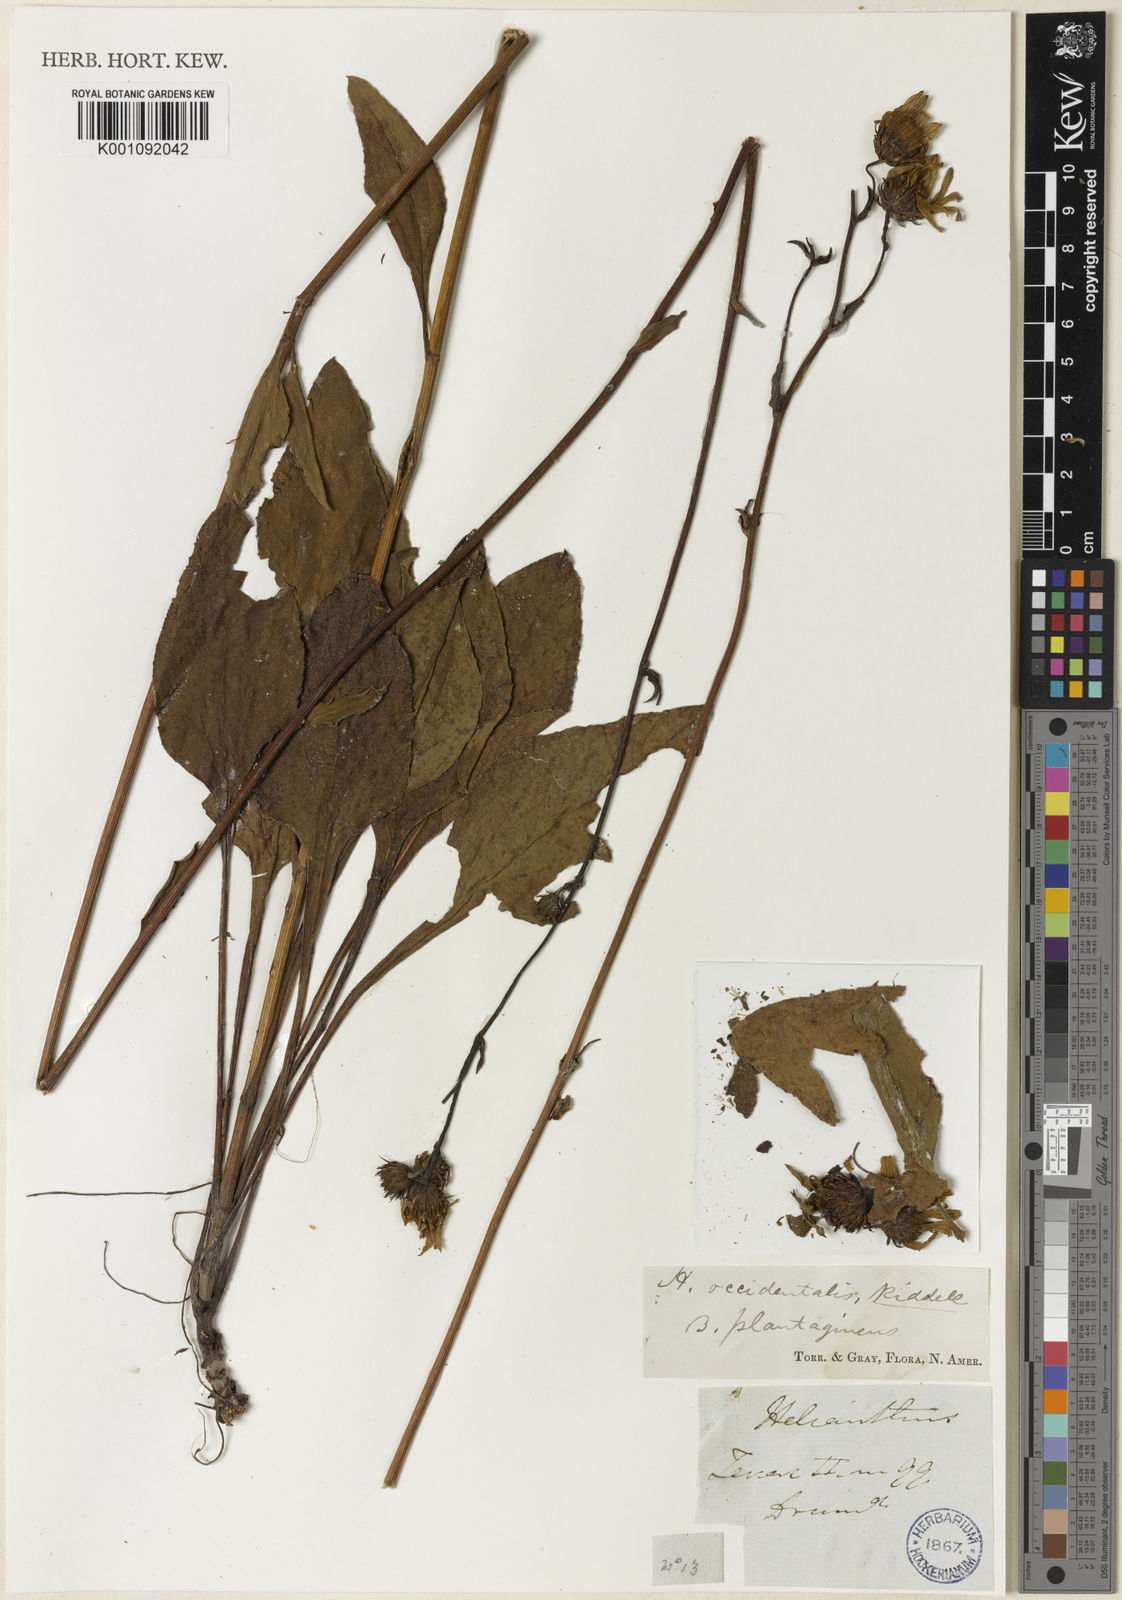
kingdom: Plantae
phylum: Tracheophyta
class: Magnoliopsida
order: Asterales
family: Asteraceae
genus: Helianthus
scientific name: Helianthus occidentalis
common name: Western sunflower
